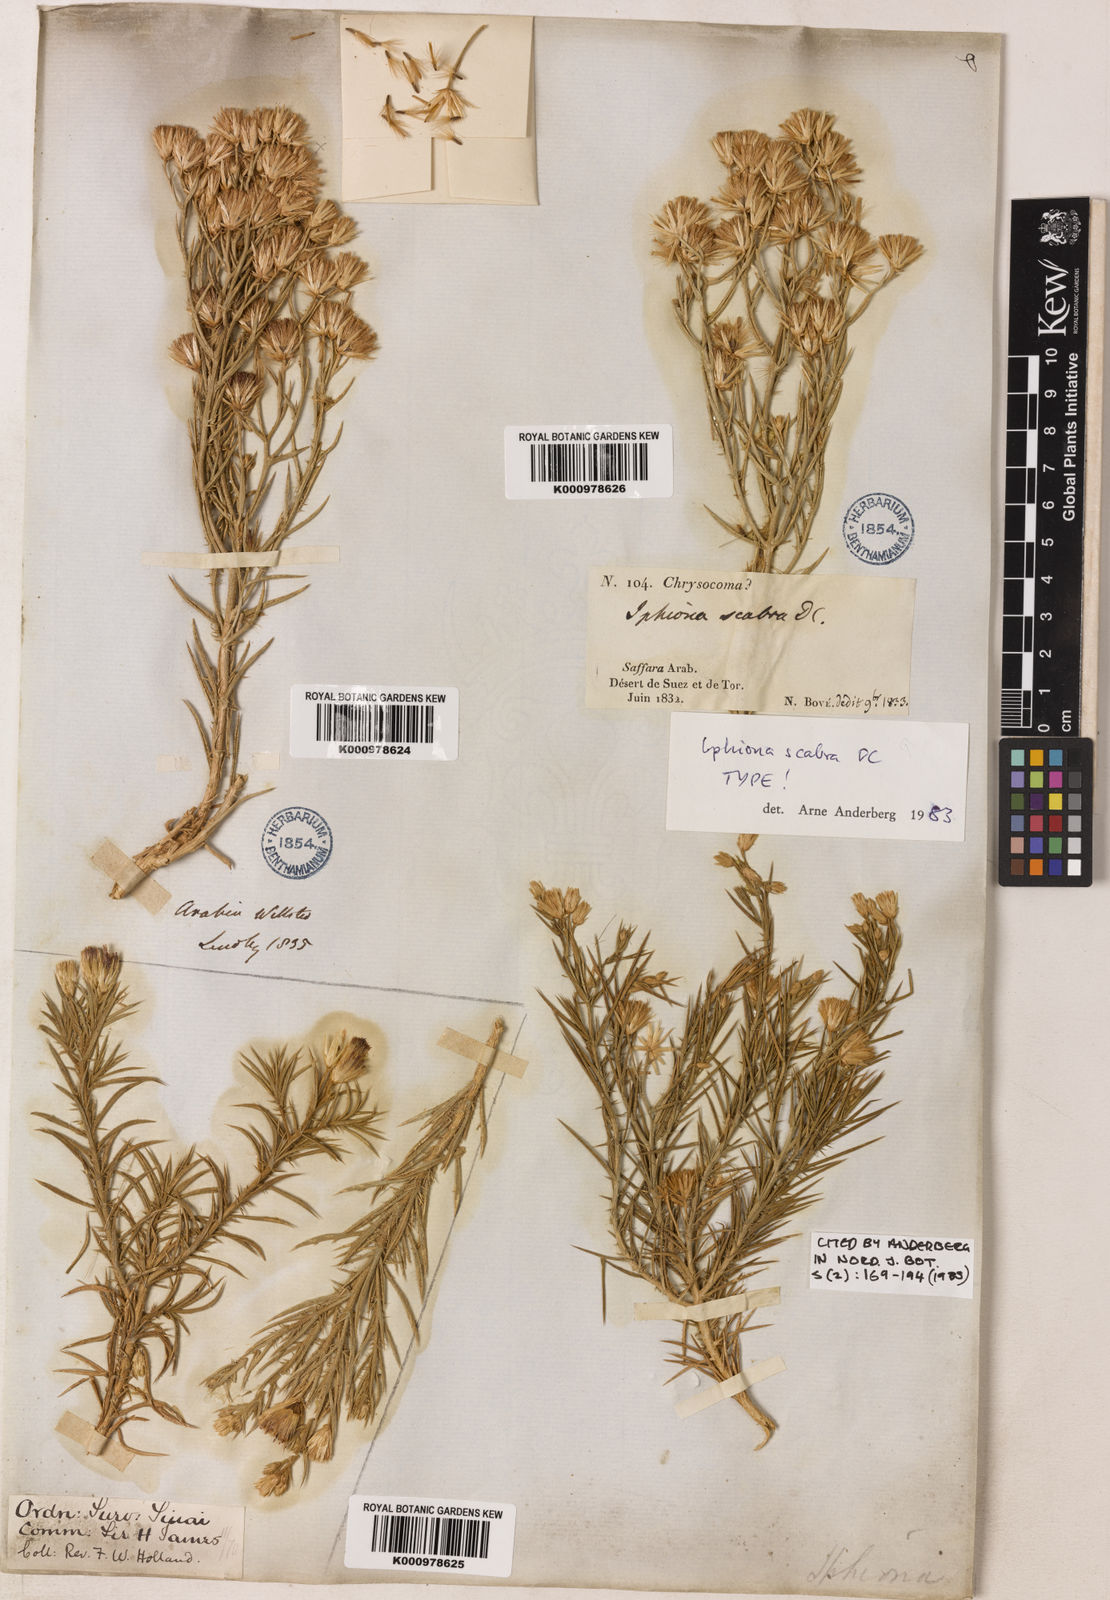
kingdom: Plantae
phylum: Tracheophyta
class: Magnoliopsida
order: Asterales
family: Asteraceae
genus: Iphiona
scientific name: Iphiona
